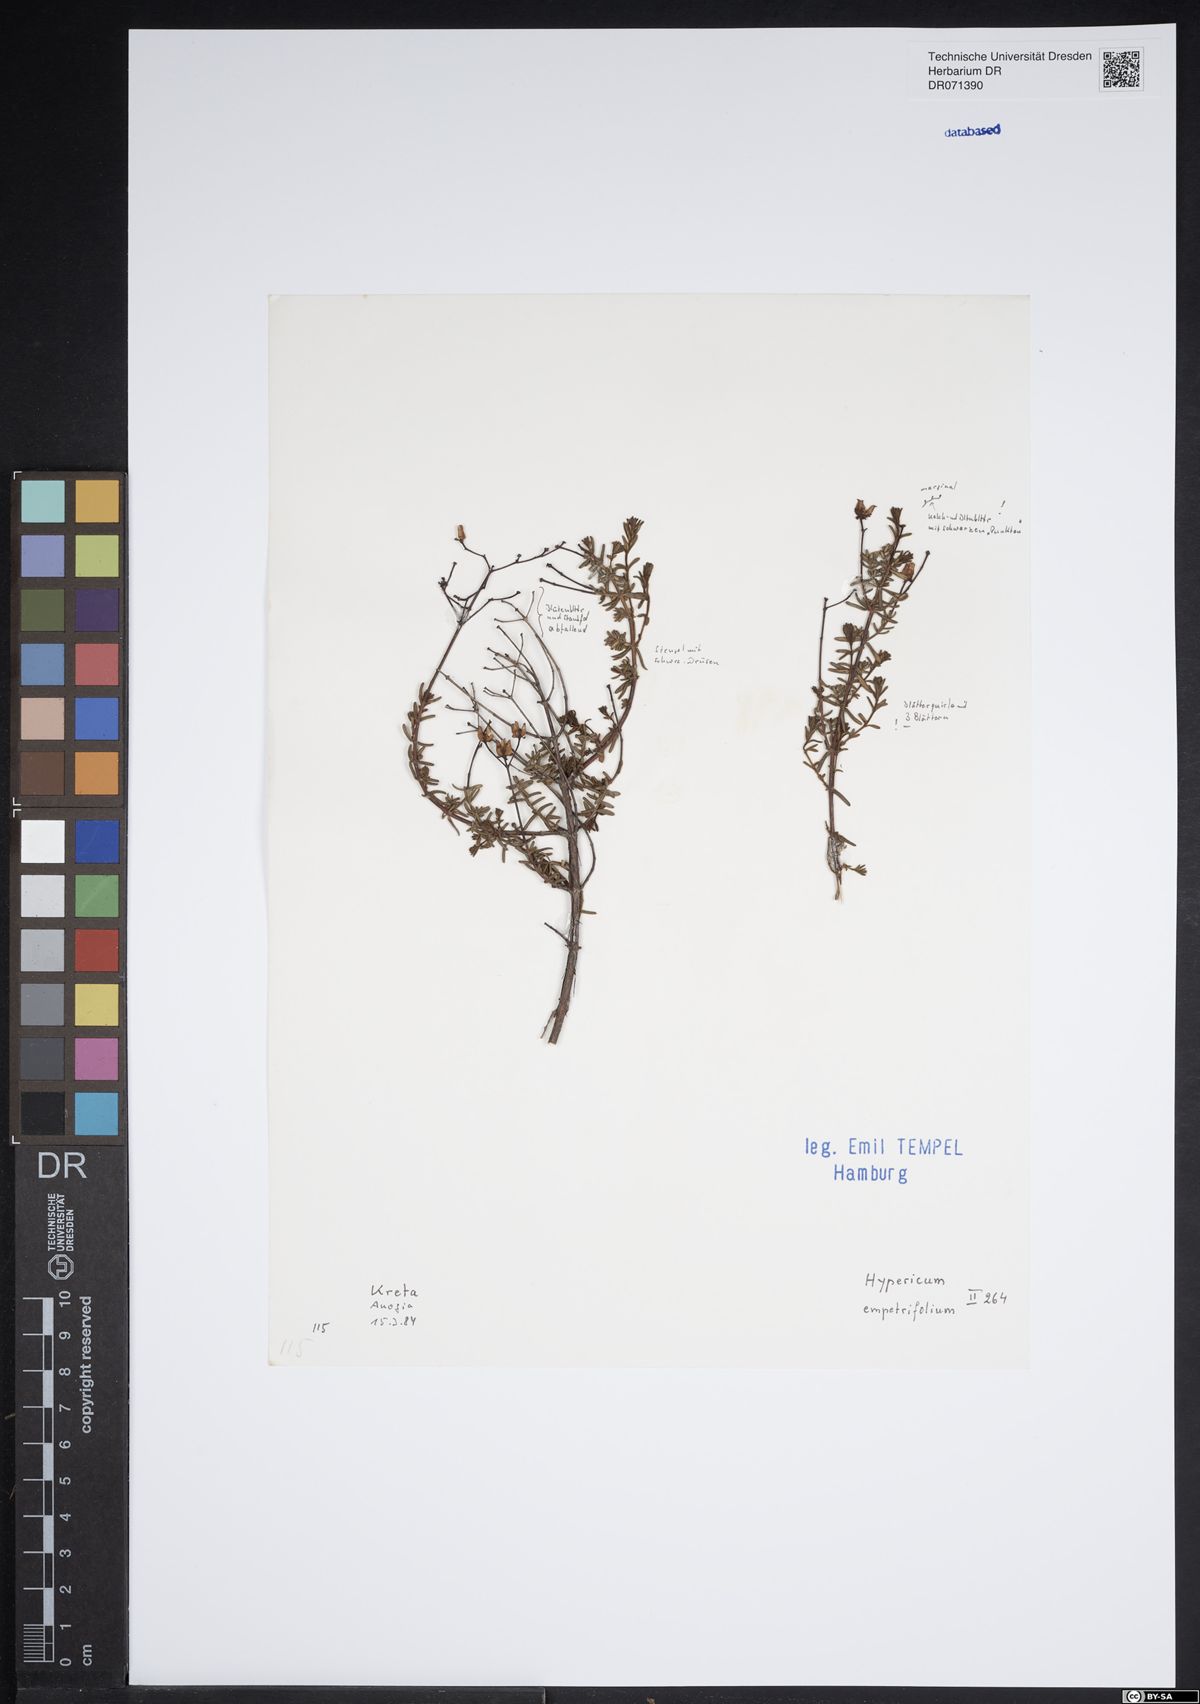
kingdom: Plantae
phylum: Tracheophyta
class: Magnoliopsida
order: Malpighiales
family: Hypericaceae
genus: Hypericum
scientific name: Hypericum empetrifolium
